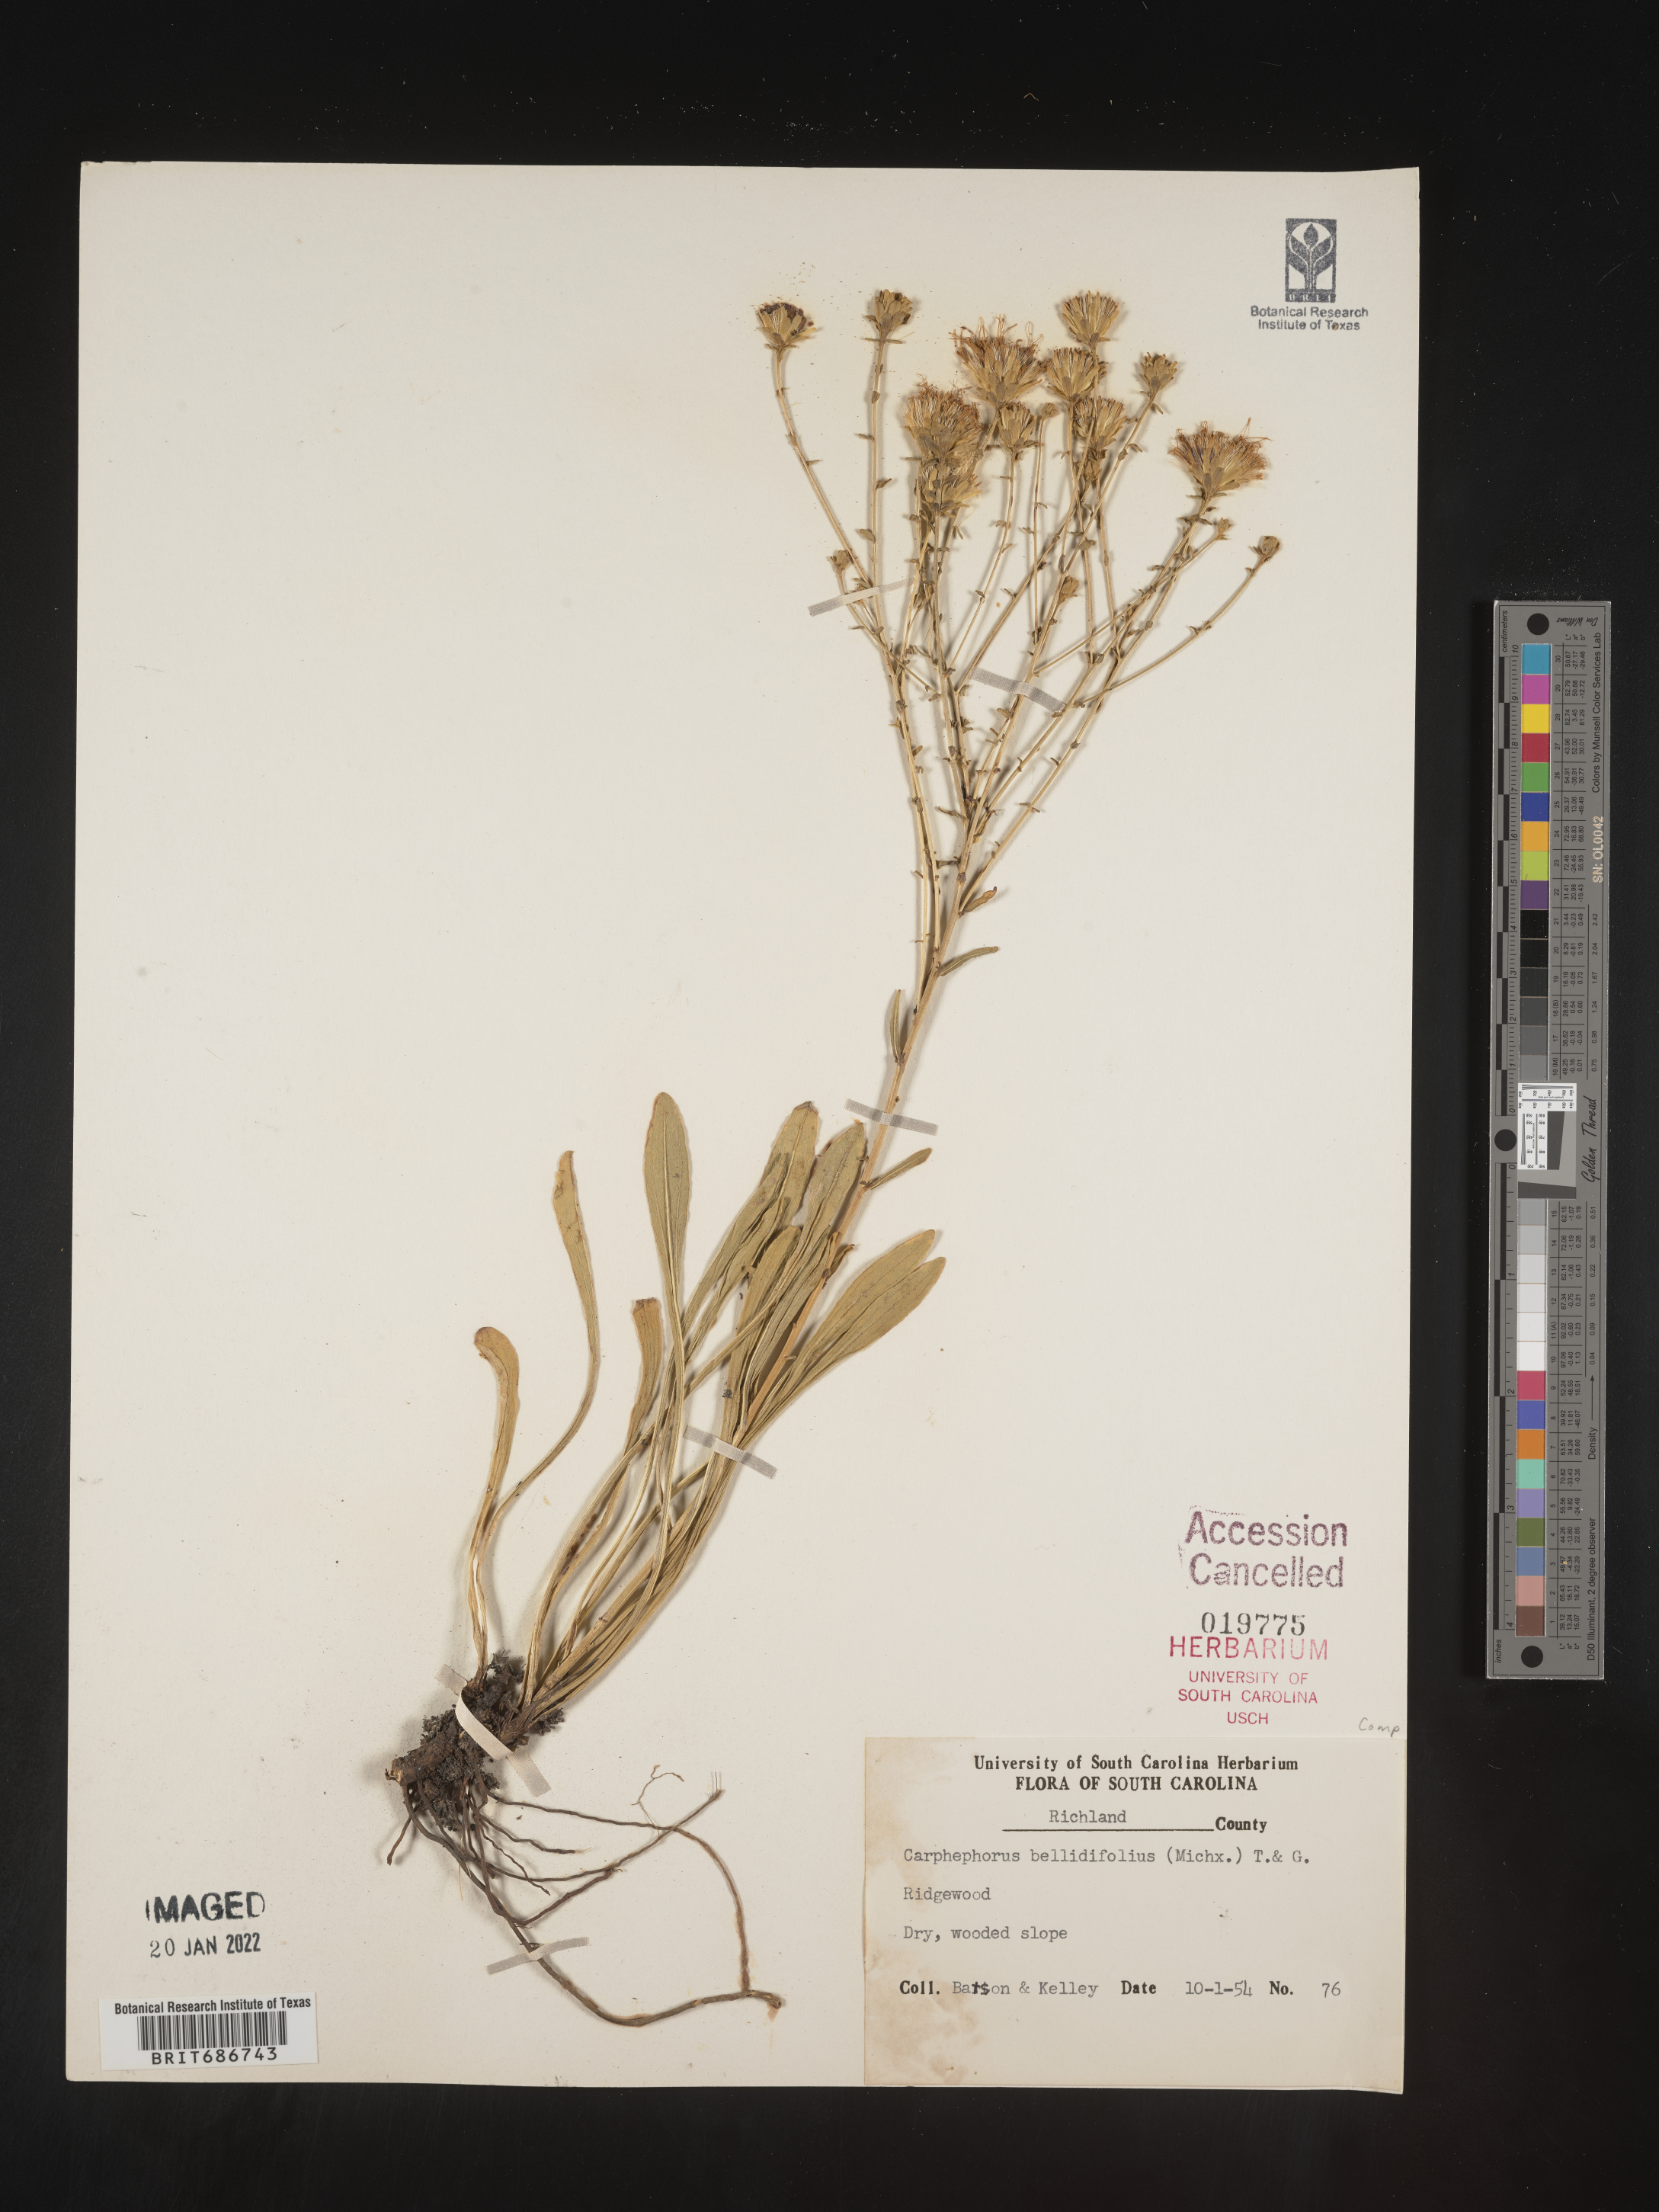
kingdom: Plantae
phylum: Tracheophyta
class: Magnoliopsida
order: Asterales
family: Asteraceae
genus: Carphephorus
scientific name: Carphephorus bellidifolius
